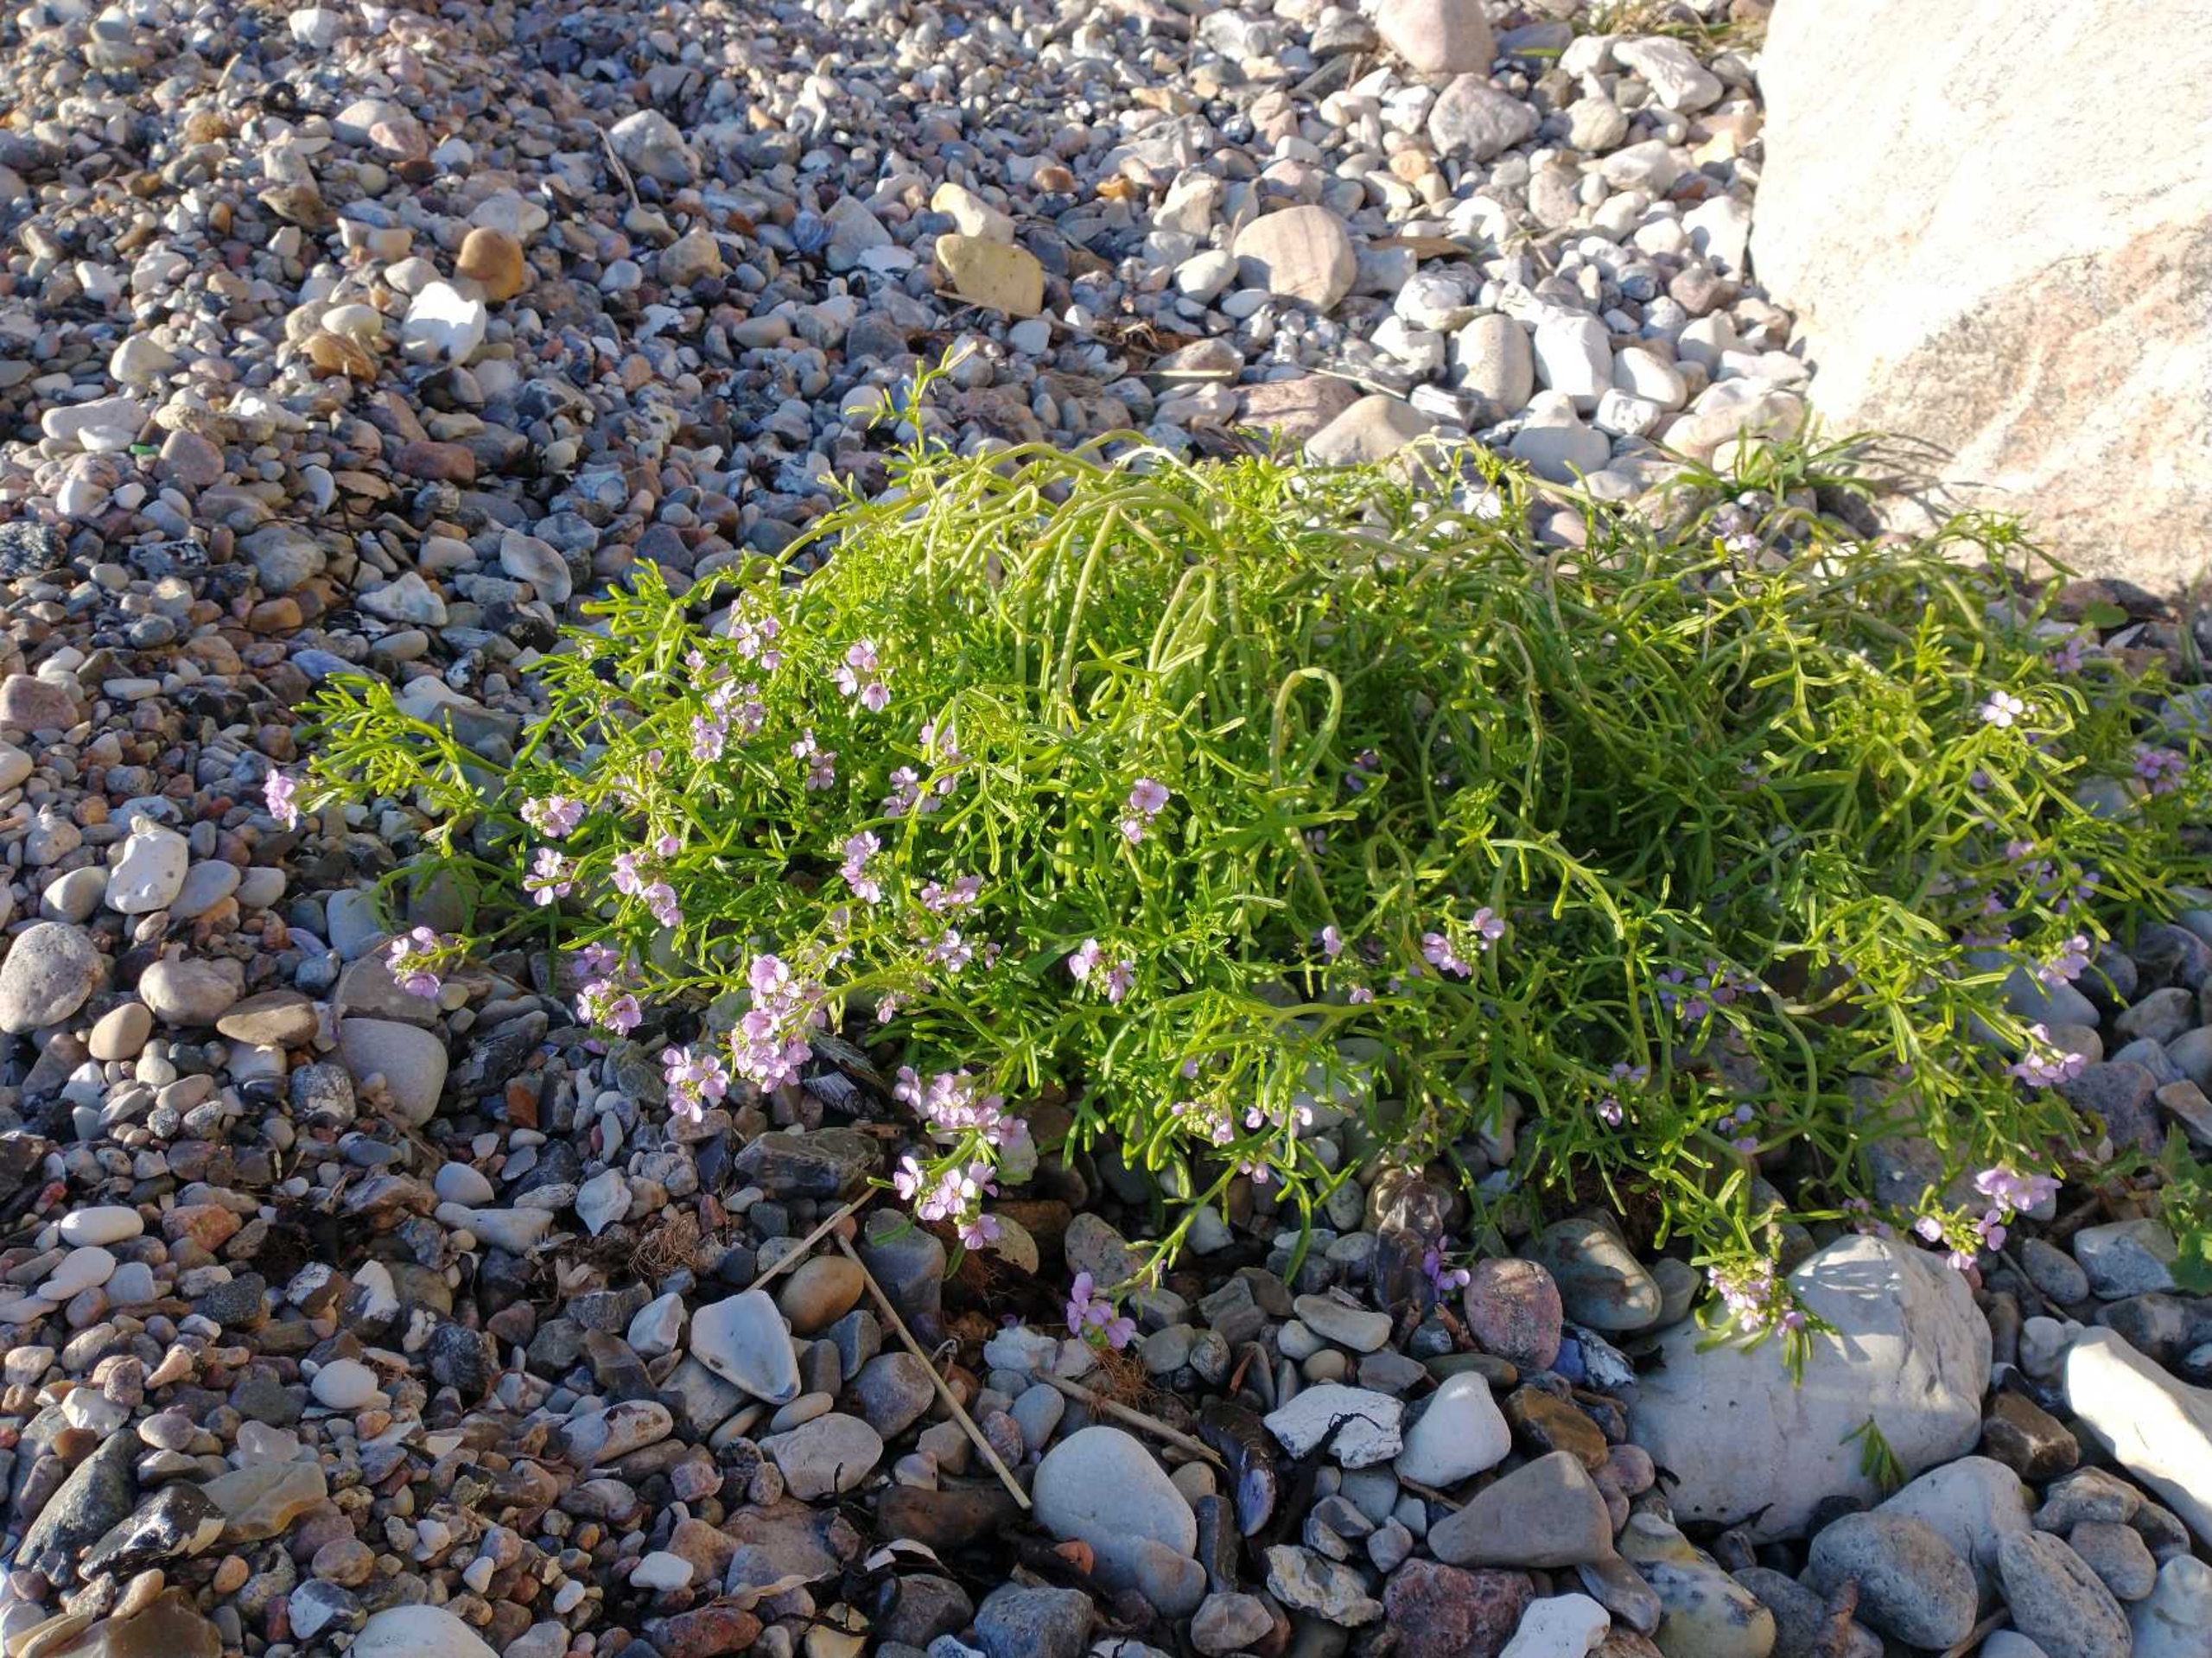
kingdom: Plantae
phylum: Tracheophyta
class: Magnoliopsida
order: Brassicales
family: Brassicaceae
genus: Cakile
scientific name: Cakile maritima
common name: Strandsennep
